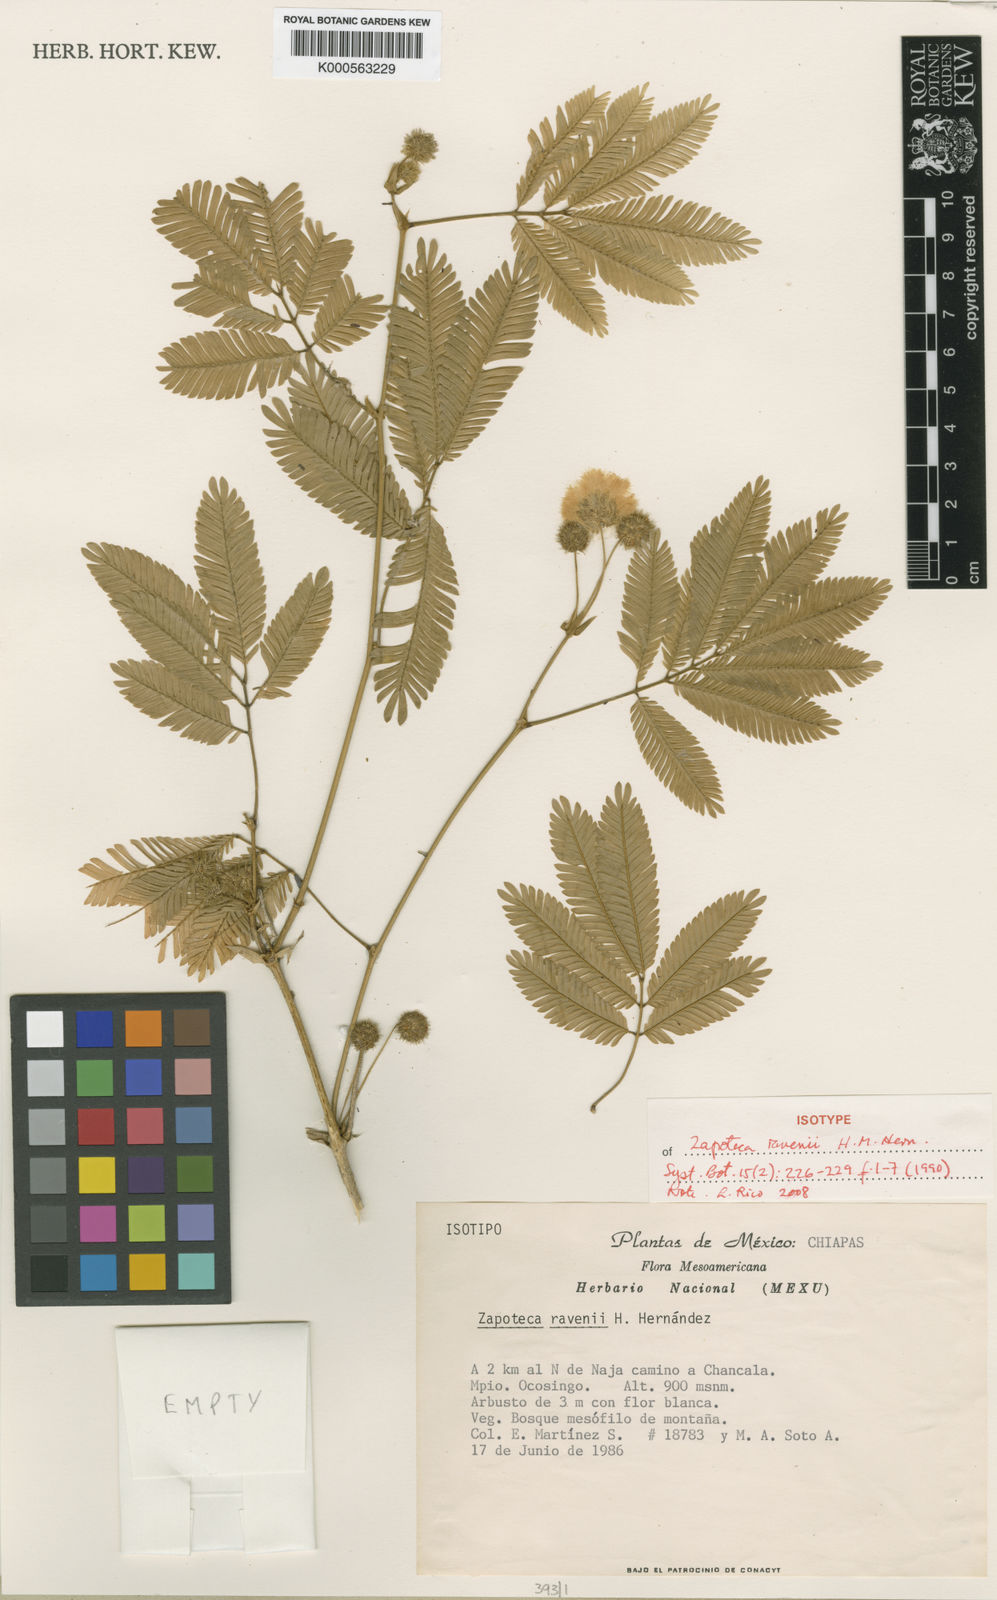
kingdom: Plantae
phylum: Tracheophyta
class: Magnoliopsida
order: Fabales
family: Fabaceae
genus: Zapoteca
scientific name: Zapoteca ravenii
